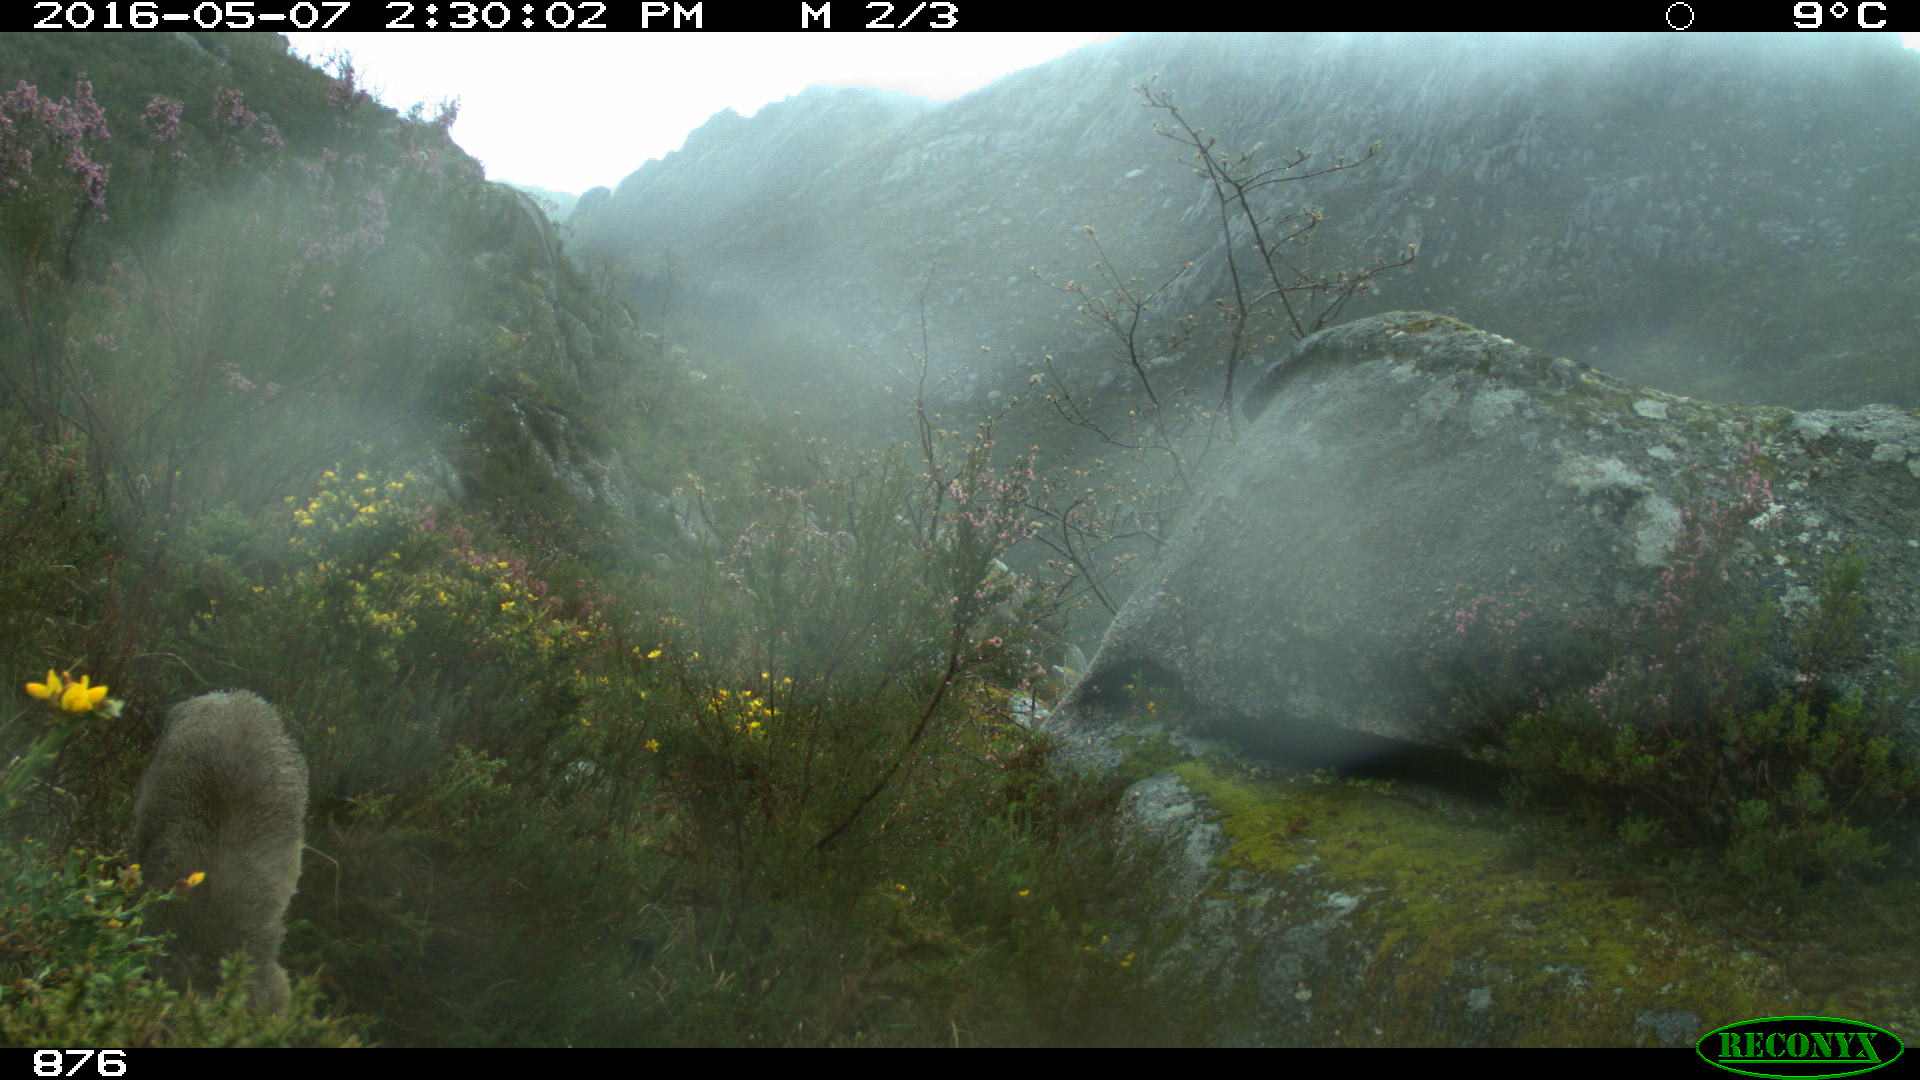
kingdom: Animalia
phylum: Chordata
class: Mammalia
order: Artiodactyla
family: Cervidae
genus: Capreolus
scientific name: Capreolus capreolus
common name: Western roe deer
